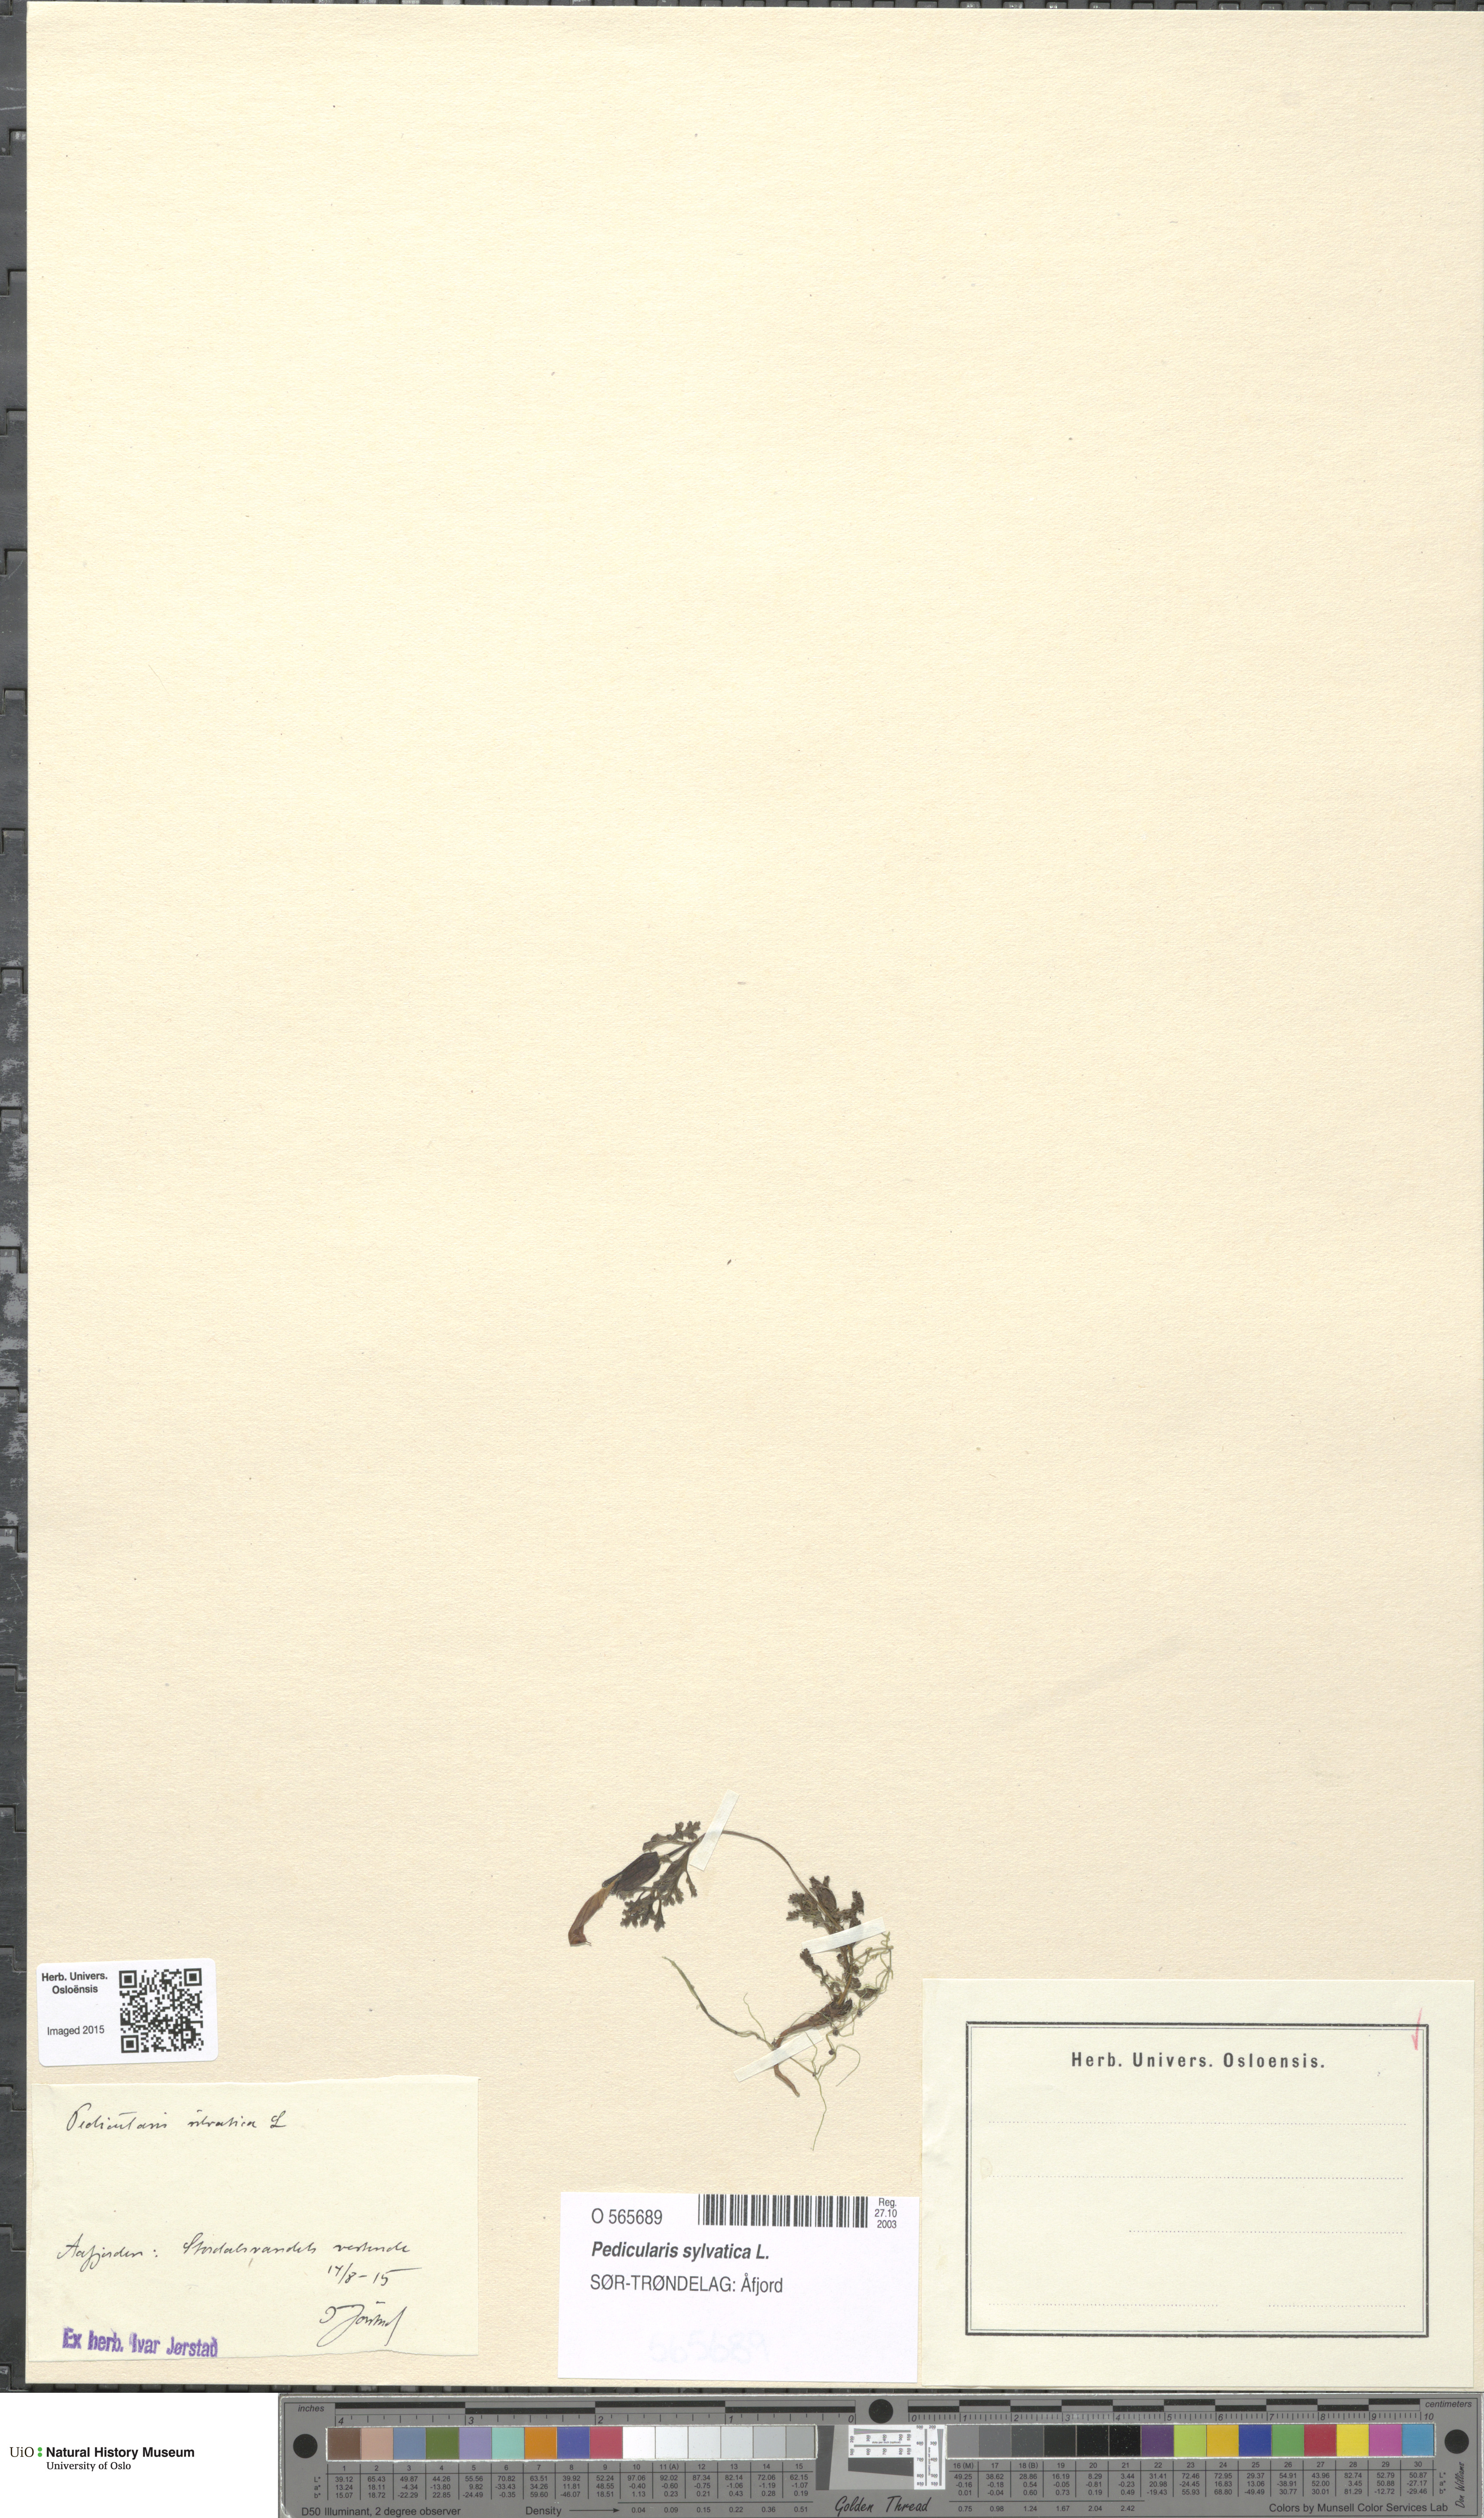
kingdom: Plantae
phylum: Tracheophyta
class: Magnoliopsida
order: Lamiales
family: Orobanchaceae
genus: Pedicularis
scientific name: Pedicularis sylvatica
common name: Lousewort
